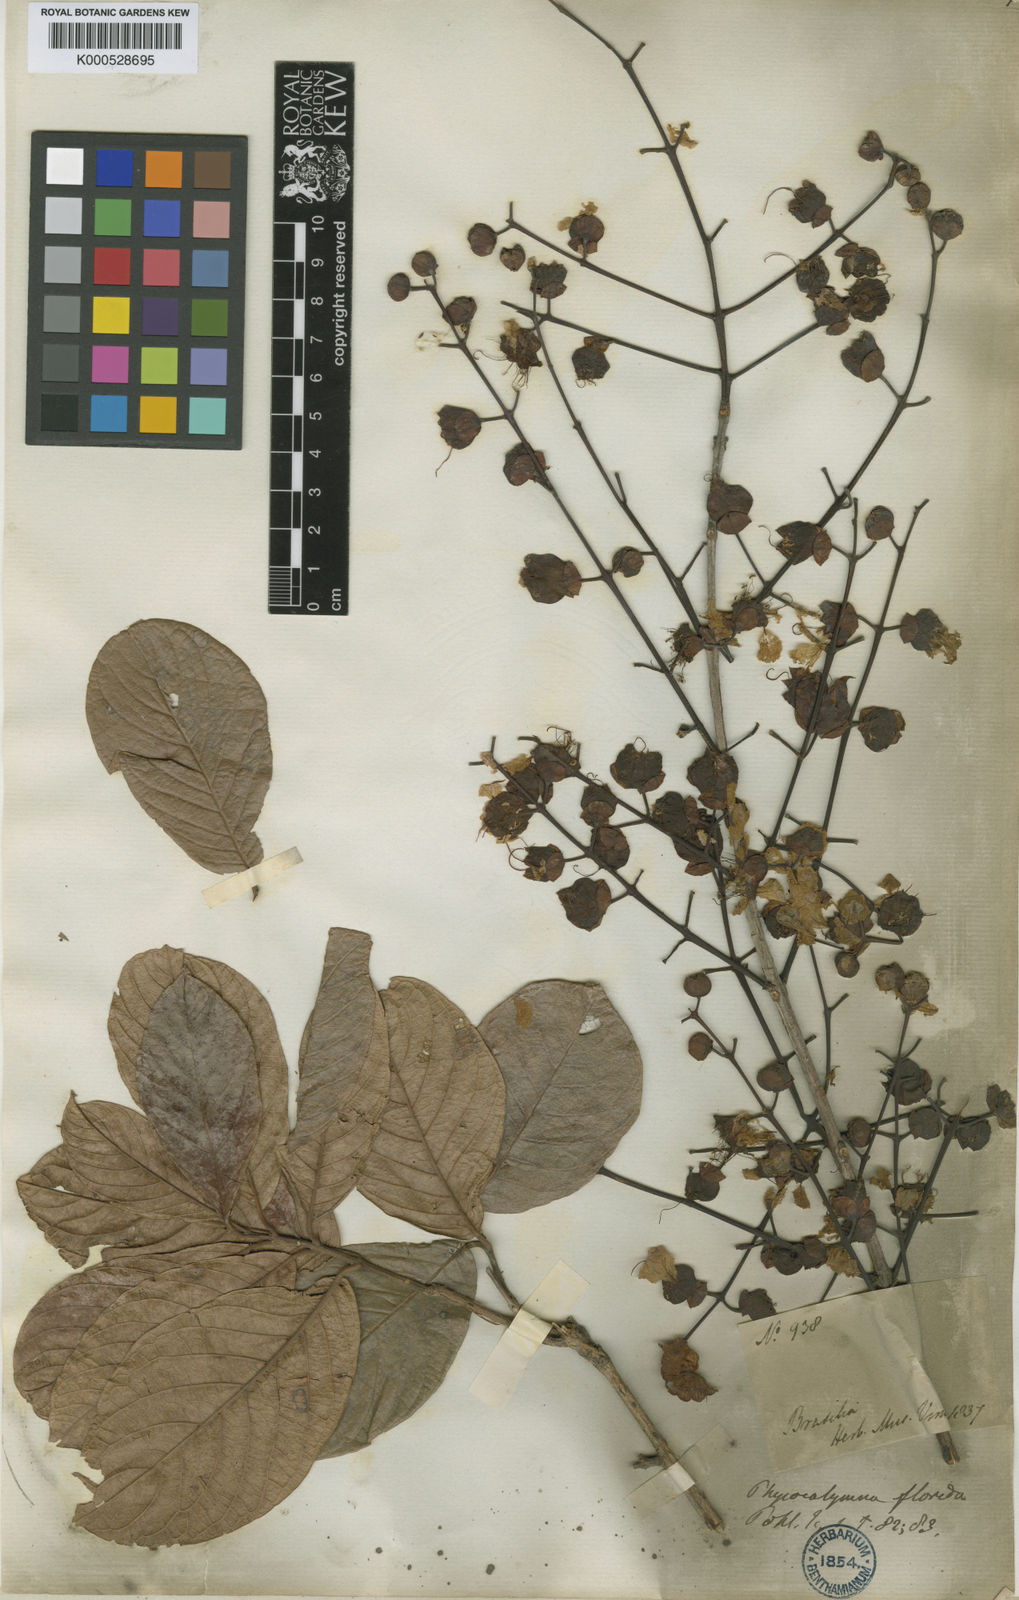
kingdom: Plantae
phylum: Tracheophyta
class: Magnoliopsida
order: Myrtales
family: Lythraceae
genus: Physocalymma
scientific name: Physocalymma scaberrimum
